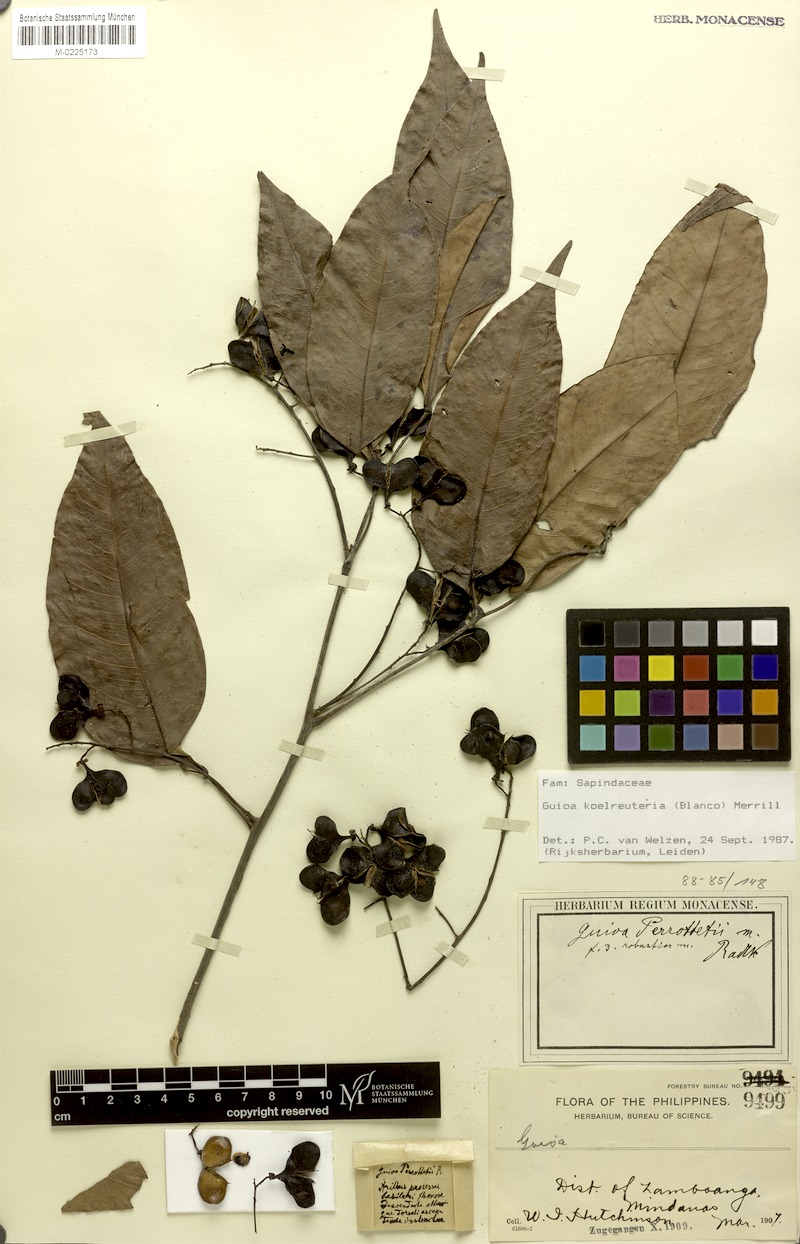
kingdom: Plantae
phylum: Tracheophyta
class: Magnoliopsida
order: Sapindales
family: Sapindaceae
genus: Guioa
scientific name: Guioa koelreuteria
